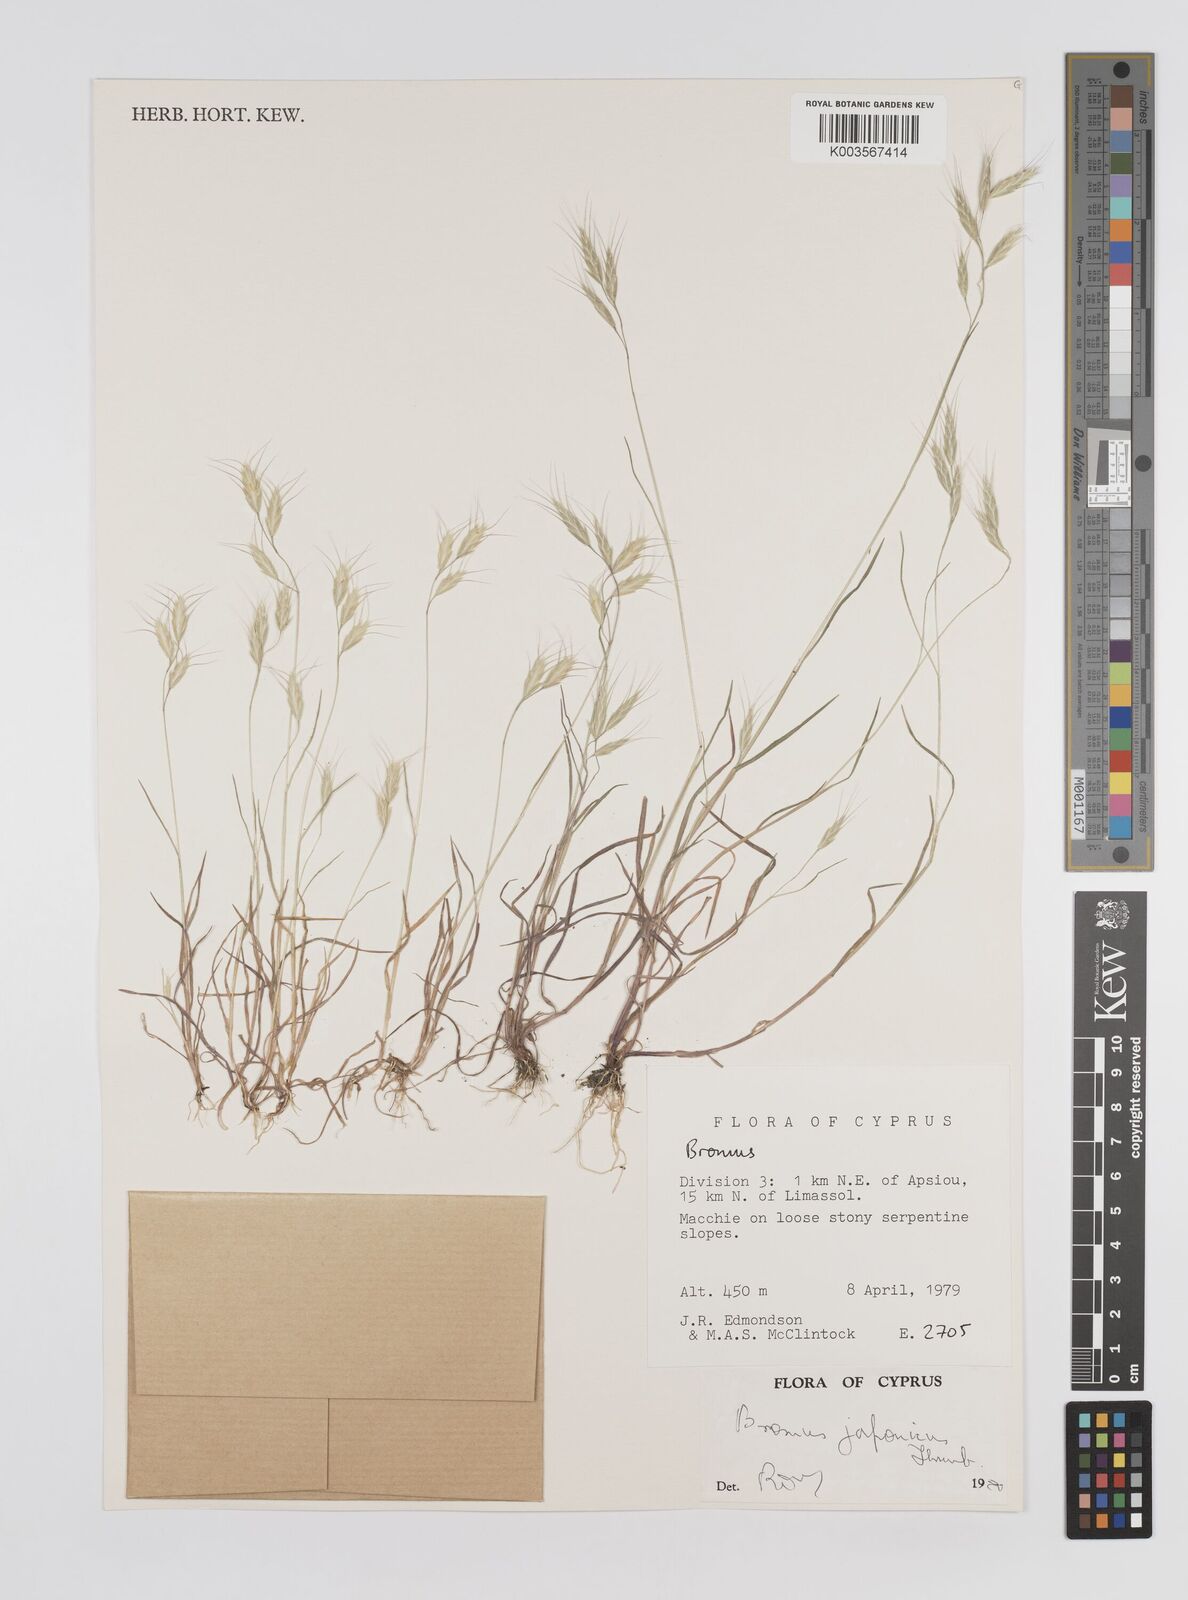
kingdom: Plantae
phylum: Tracheophyta
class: Liliopsida
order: Poales
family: Poaceae
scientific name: Poaceae
